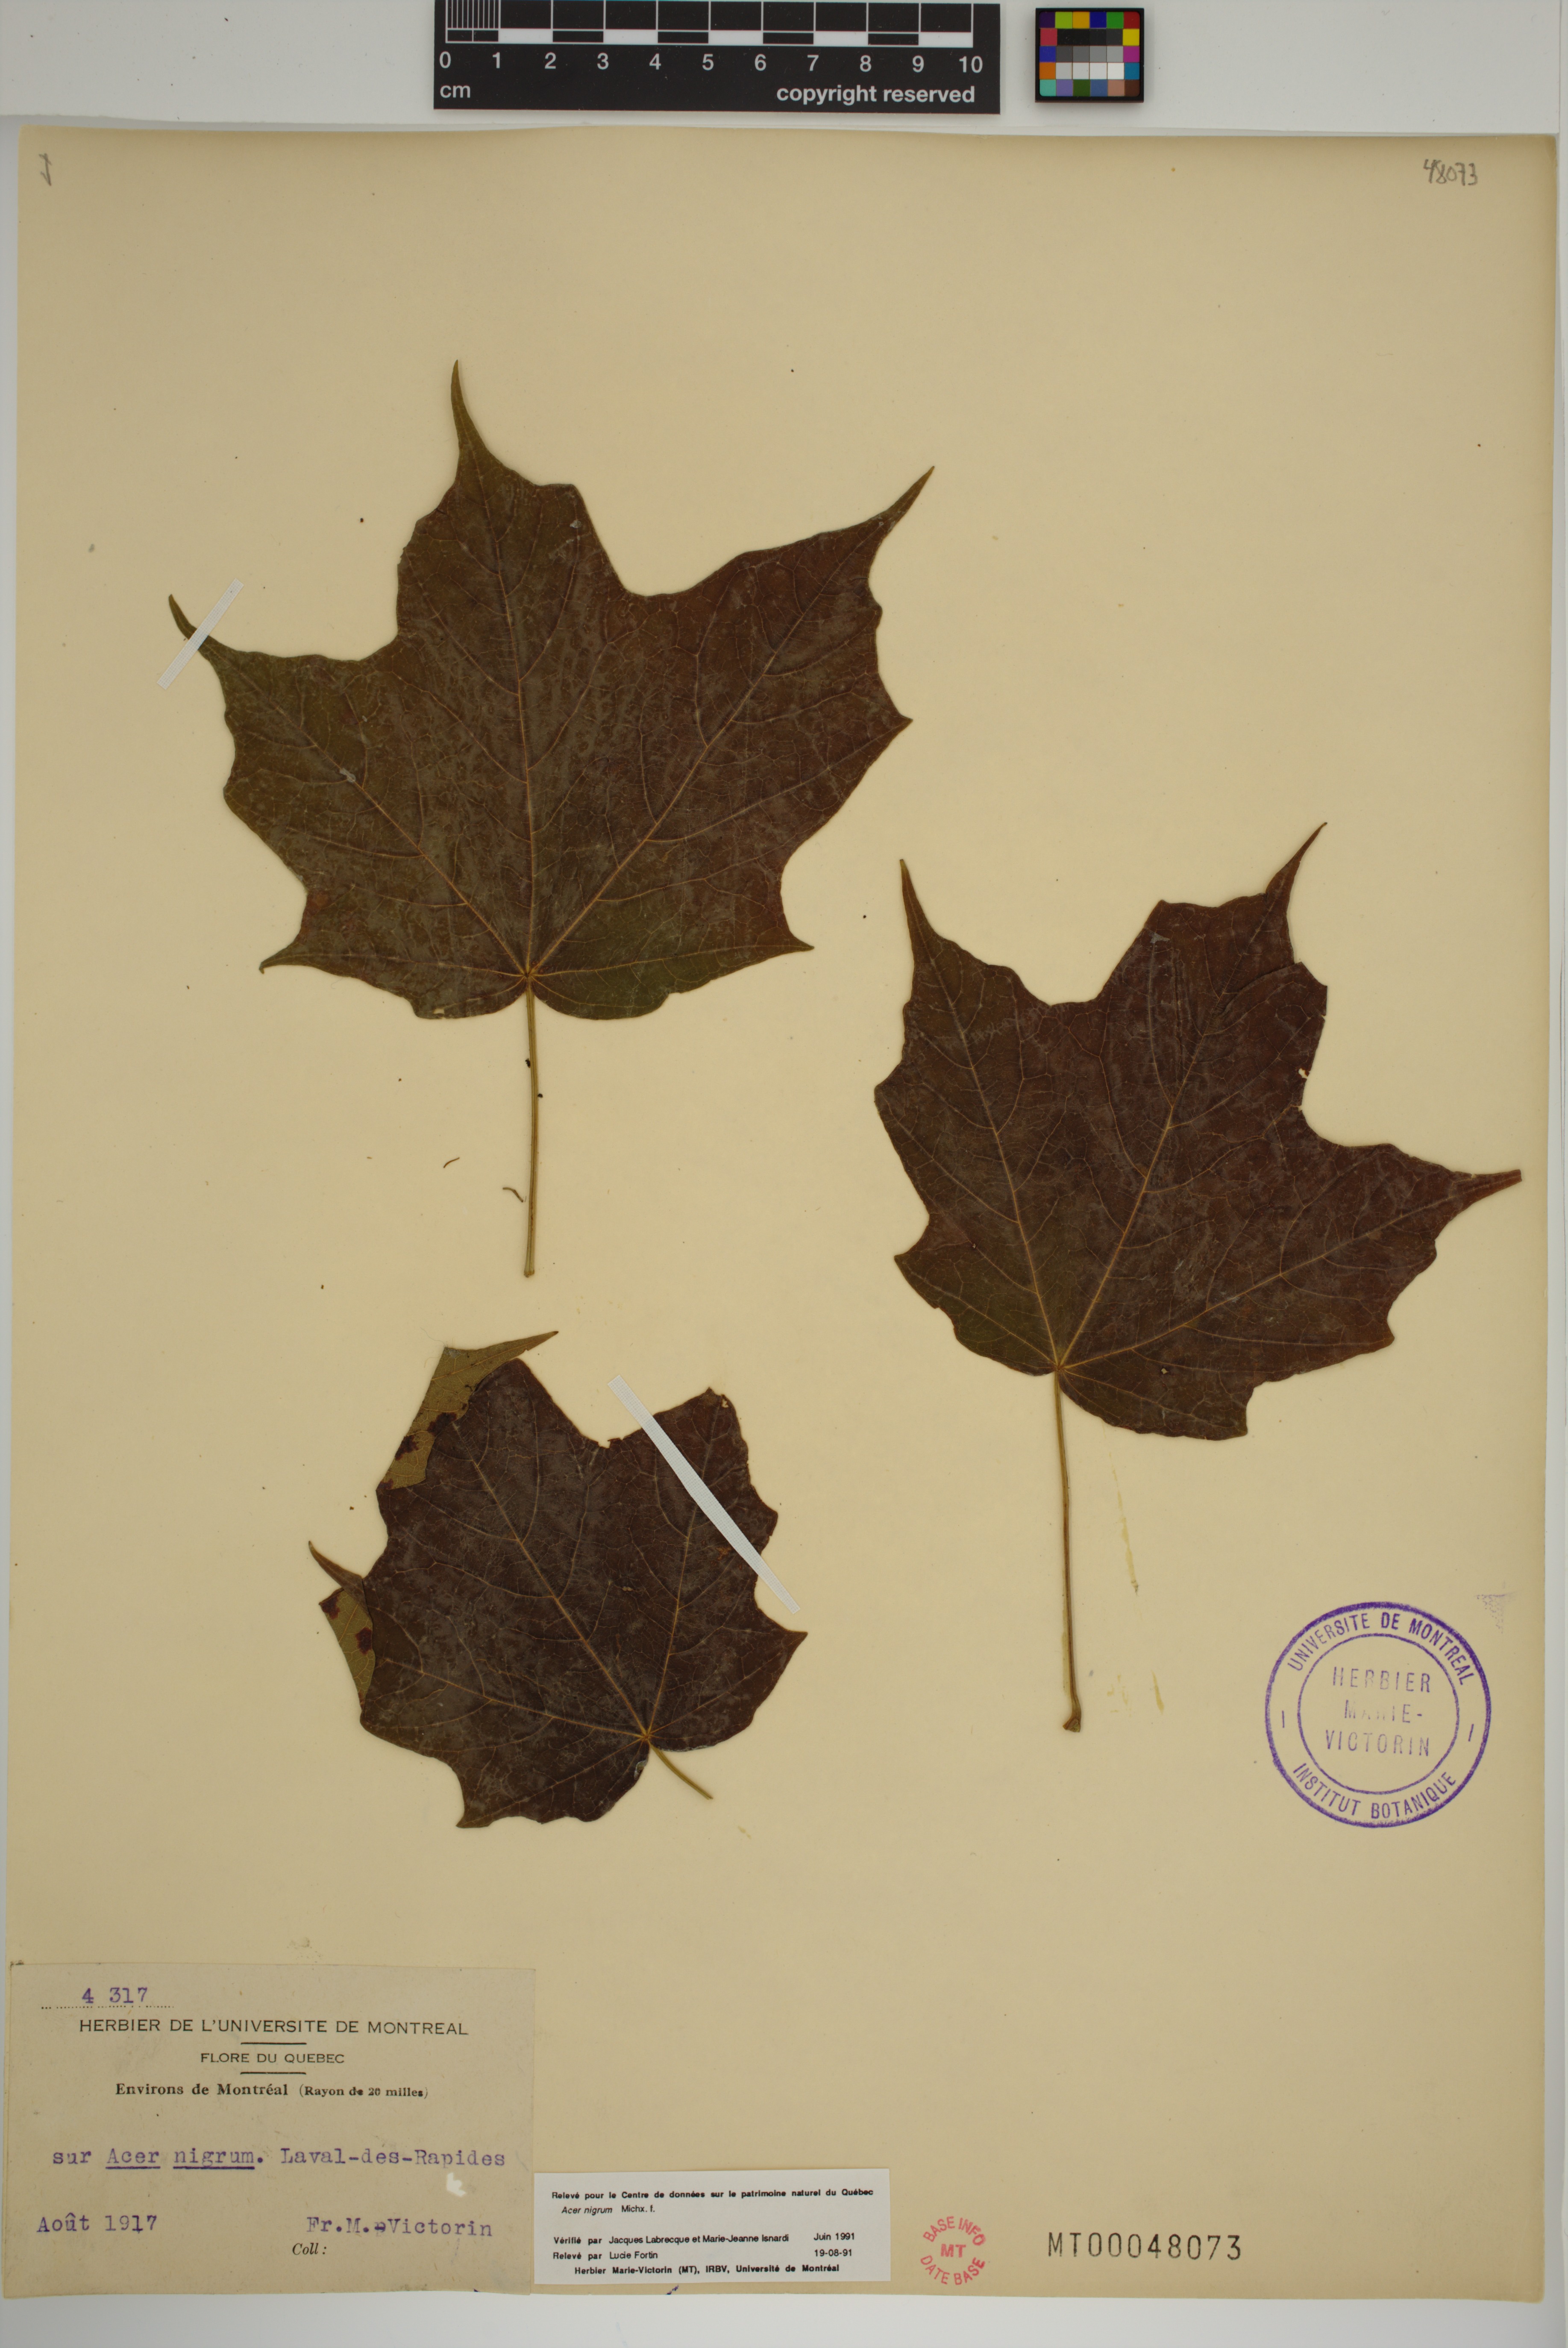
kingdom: Plantae
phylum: Tracheophyta
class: Magnoliopsida
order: Sapindales
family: Sapindaceae
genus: Acer
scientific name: Acer nigrum
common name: Black maple
